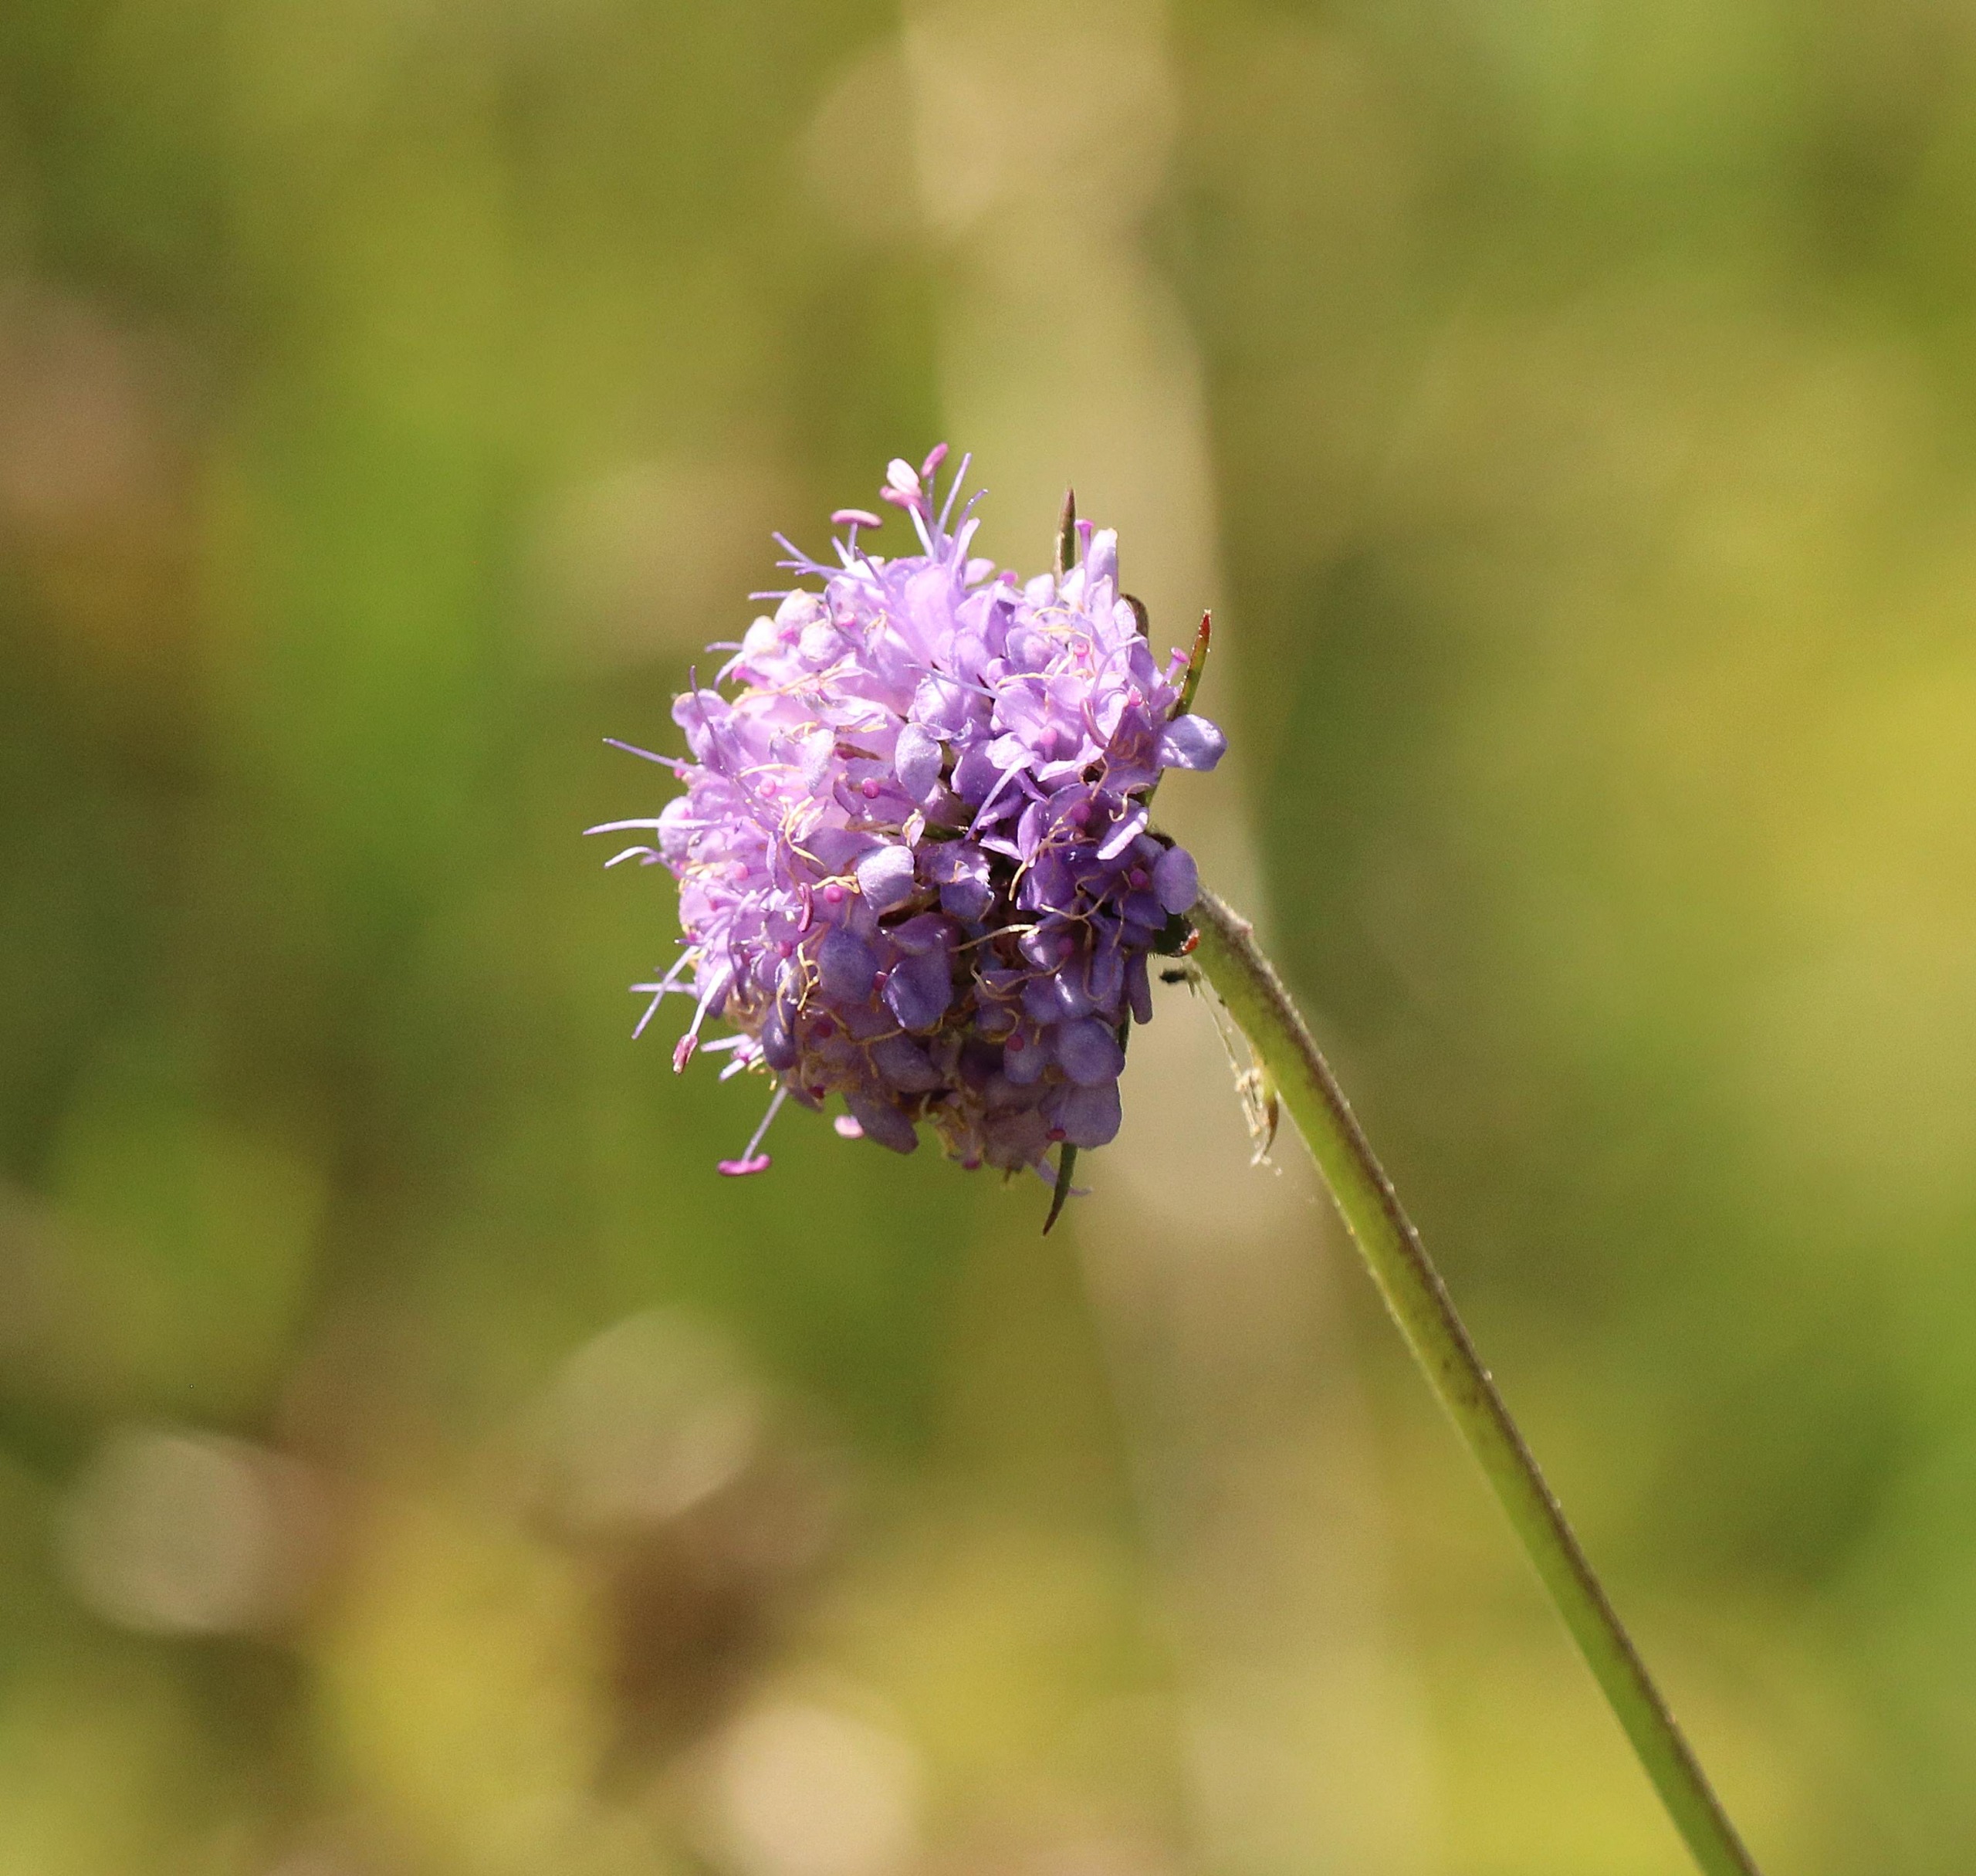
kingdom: Plantae
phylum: Tracheophyta
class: Magnoliopsida
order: Dipsacales
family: Caprifoliaceae
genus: Succisa
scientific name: Succisa pratensis
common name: Djævelsbid
